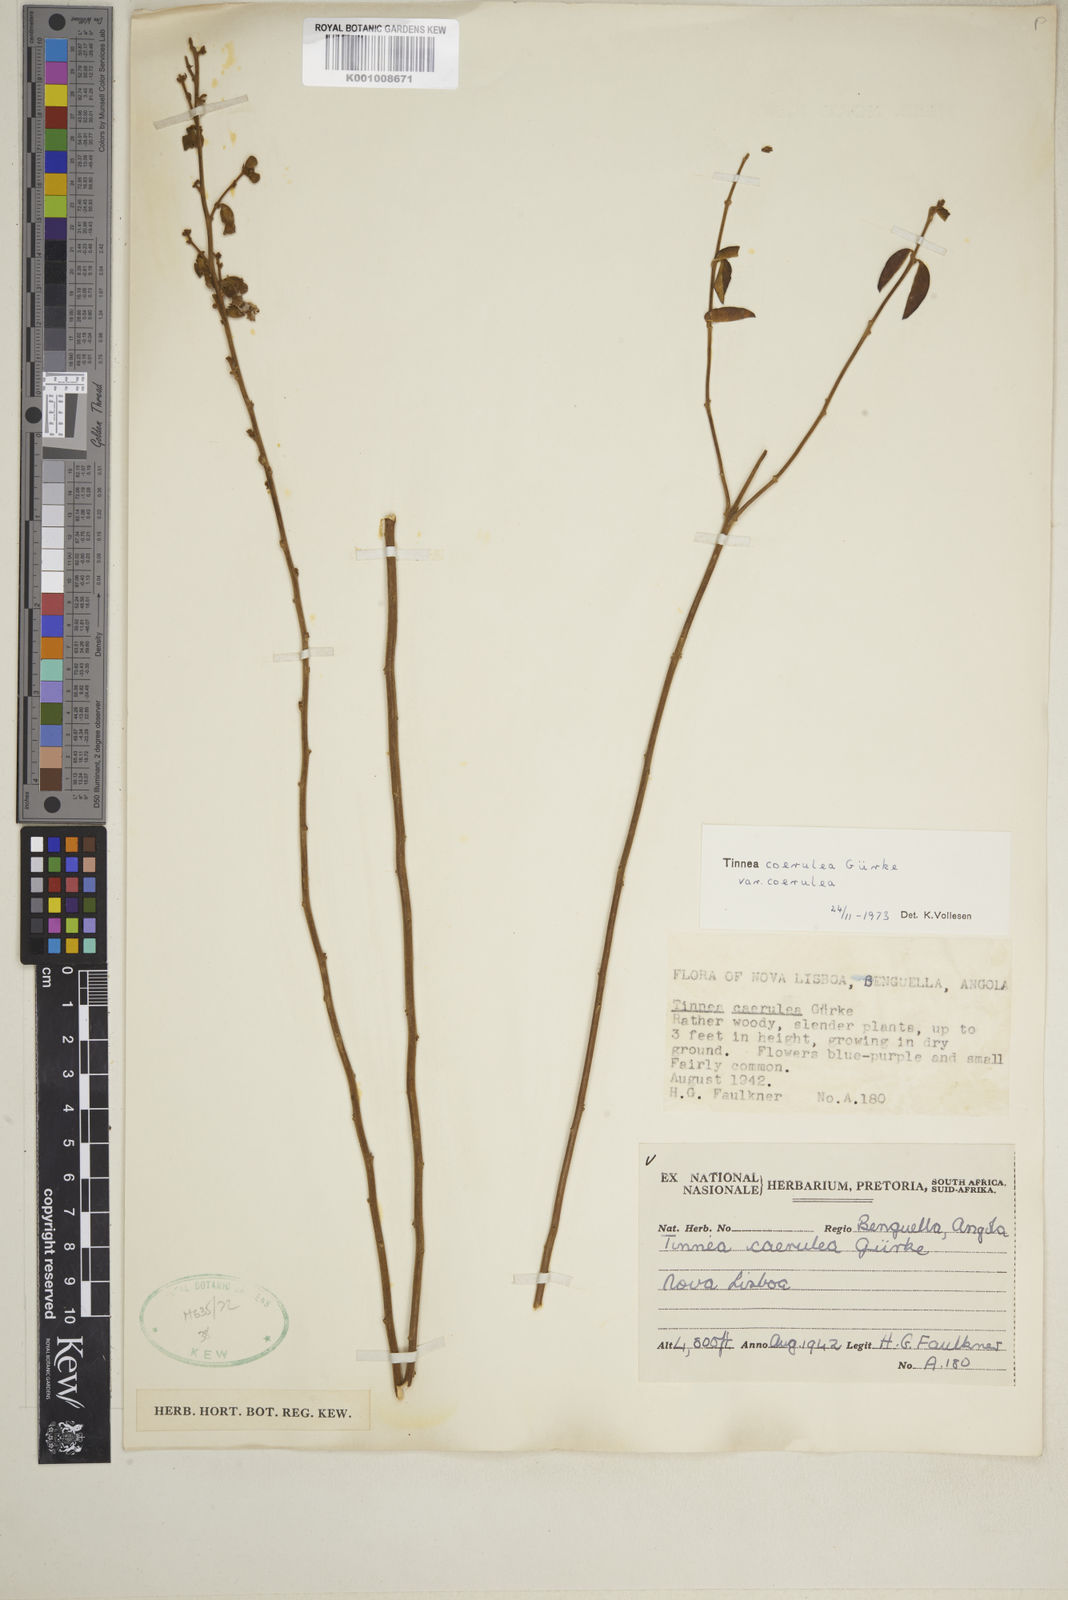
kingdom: Plantae
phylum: Tracheophyta
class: Magnoliopsida
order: Lamiales
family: Lamiaceae
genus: Tinnea
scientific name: Tinnea
